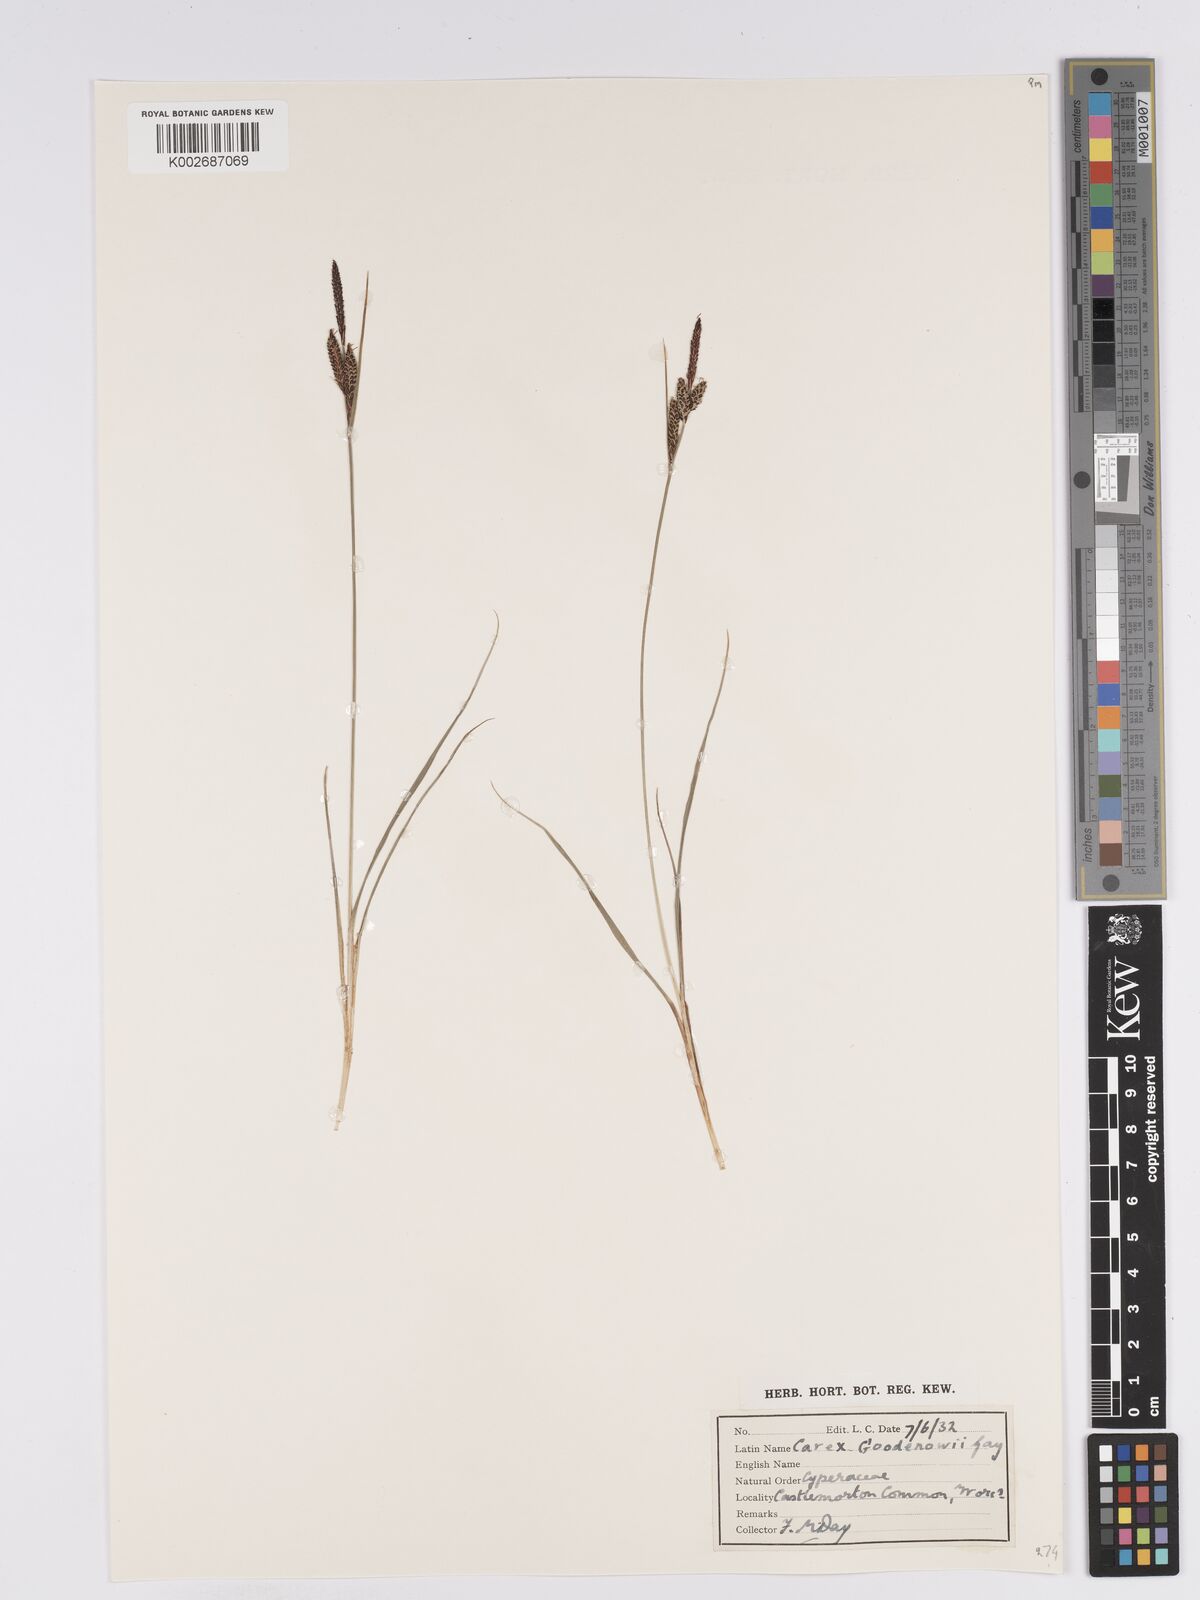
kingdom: Plantae
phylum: Tracheophyta
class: Liliopsida
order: Poales
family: Cyperaceae
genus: Carex
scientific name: Carex nigra
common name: Common sedge
